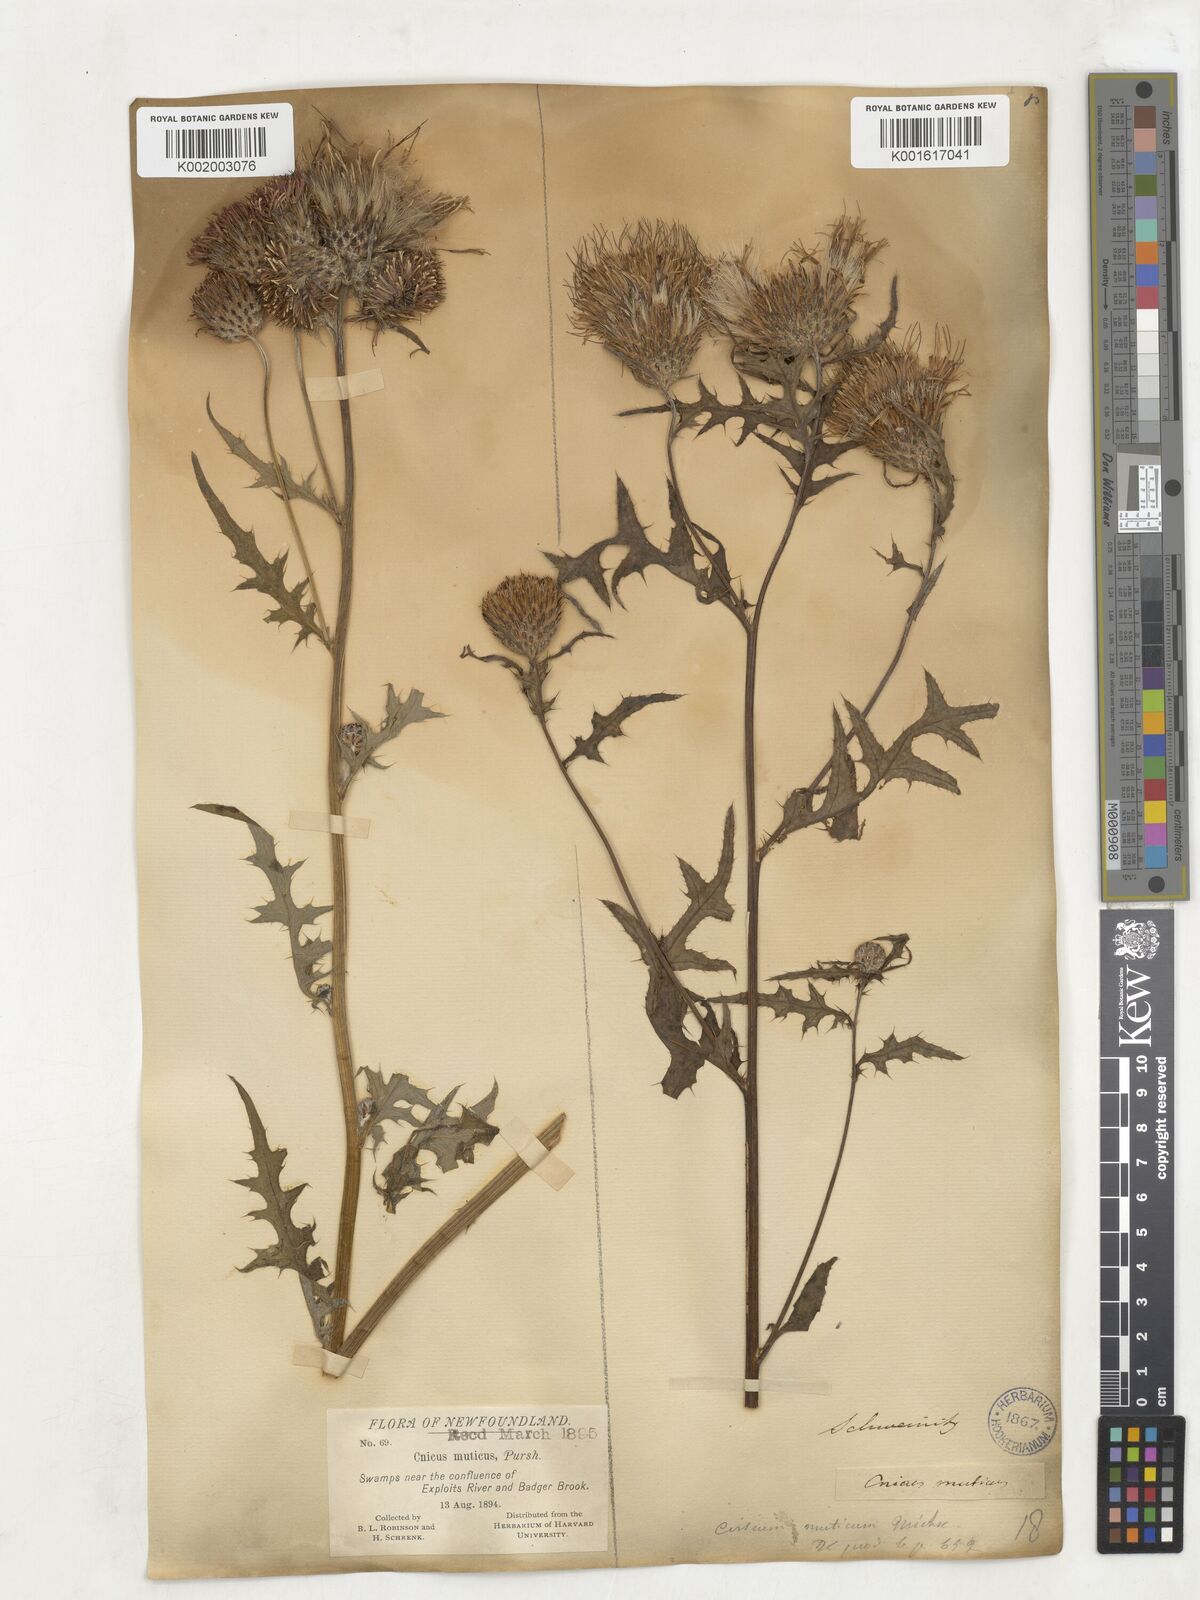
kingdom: Plantae
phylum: Tracheophyta
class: Magnoliopsida
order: Asterales
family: Asteraceae
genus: Centaurea
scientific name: Centaurea
